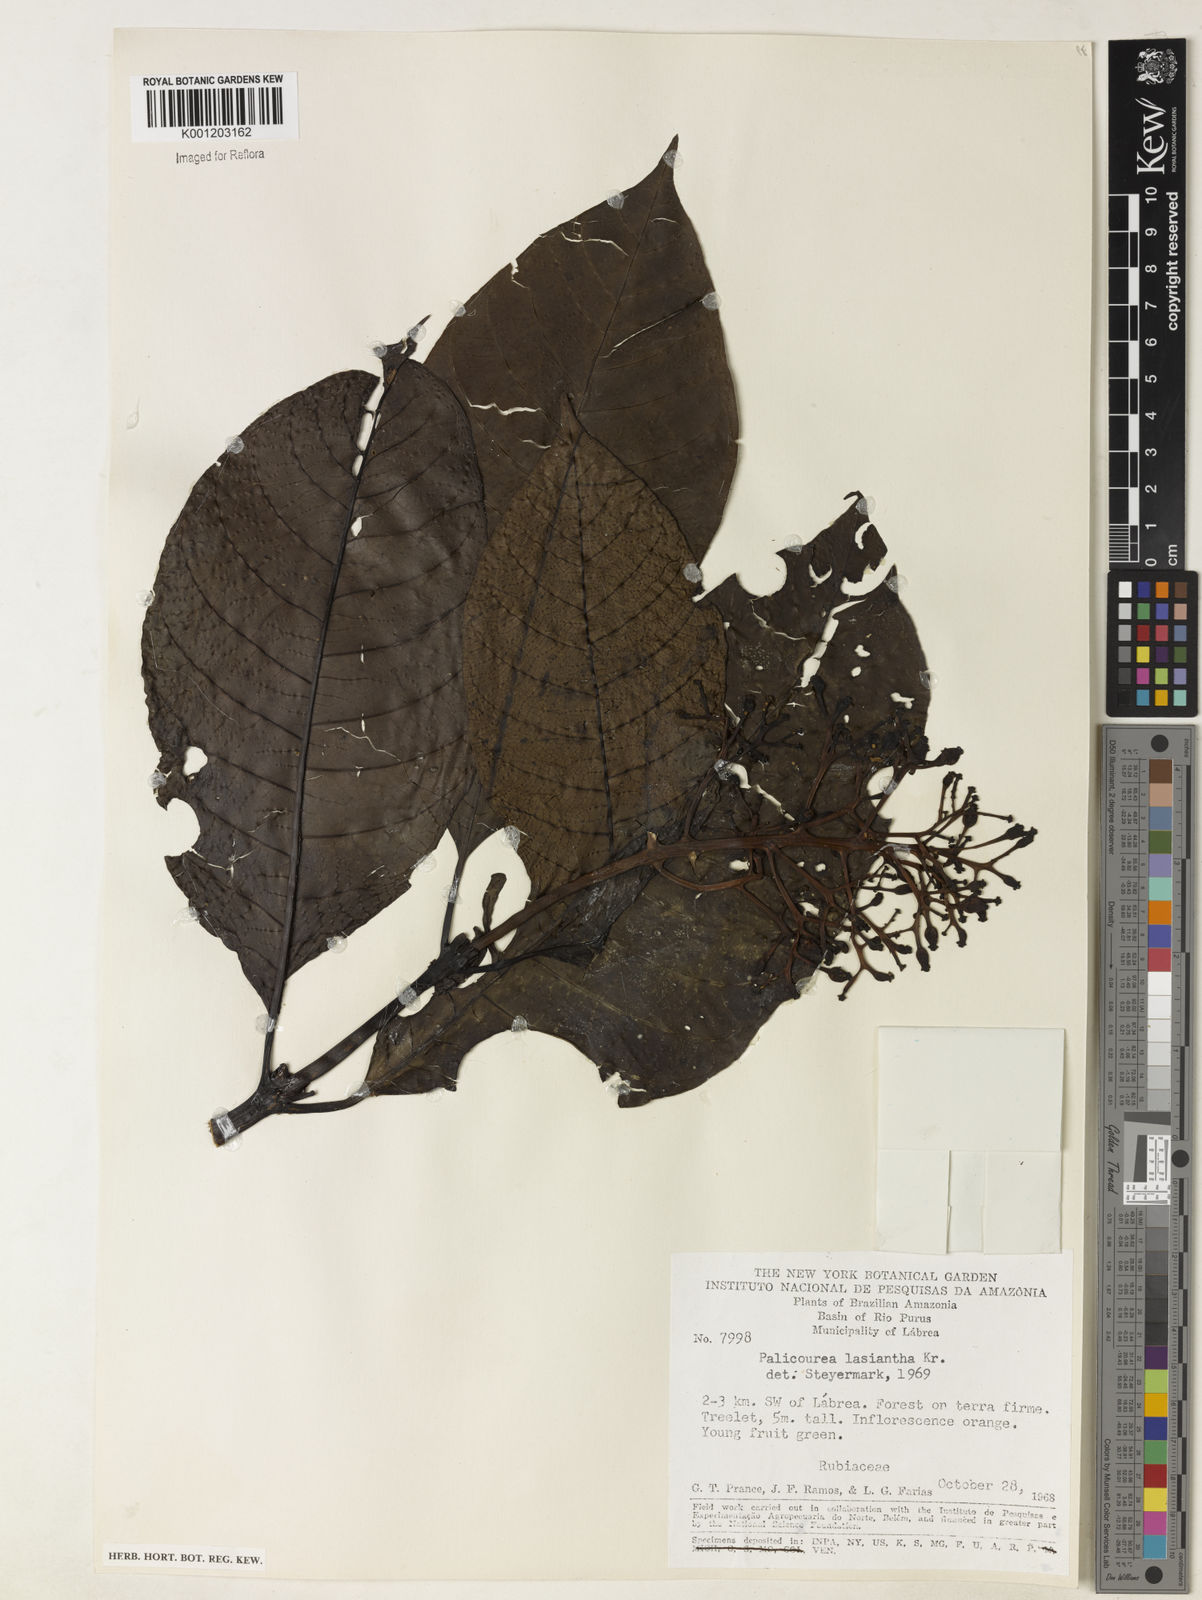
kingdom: Plantae
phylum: Tracheophyta
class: Magnoliopsida
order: Gentianales
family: Rubiaceae
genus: Palicourea
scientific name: Palicourea lasiantha
